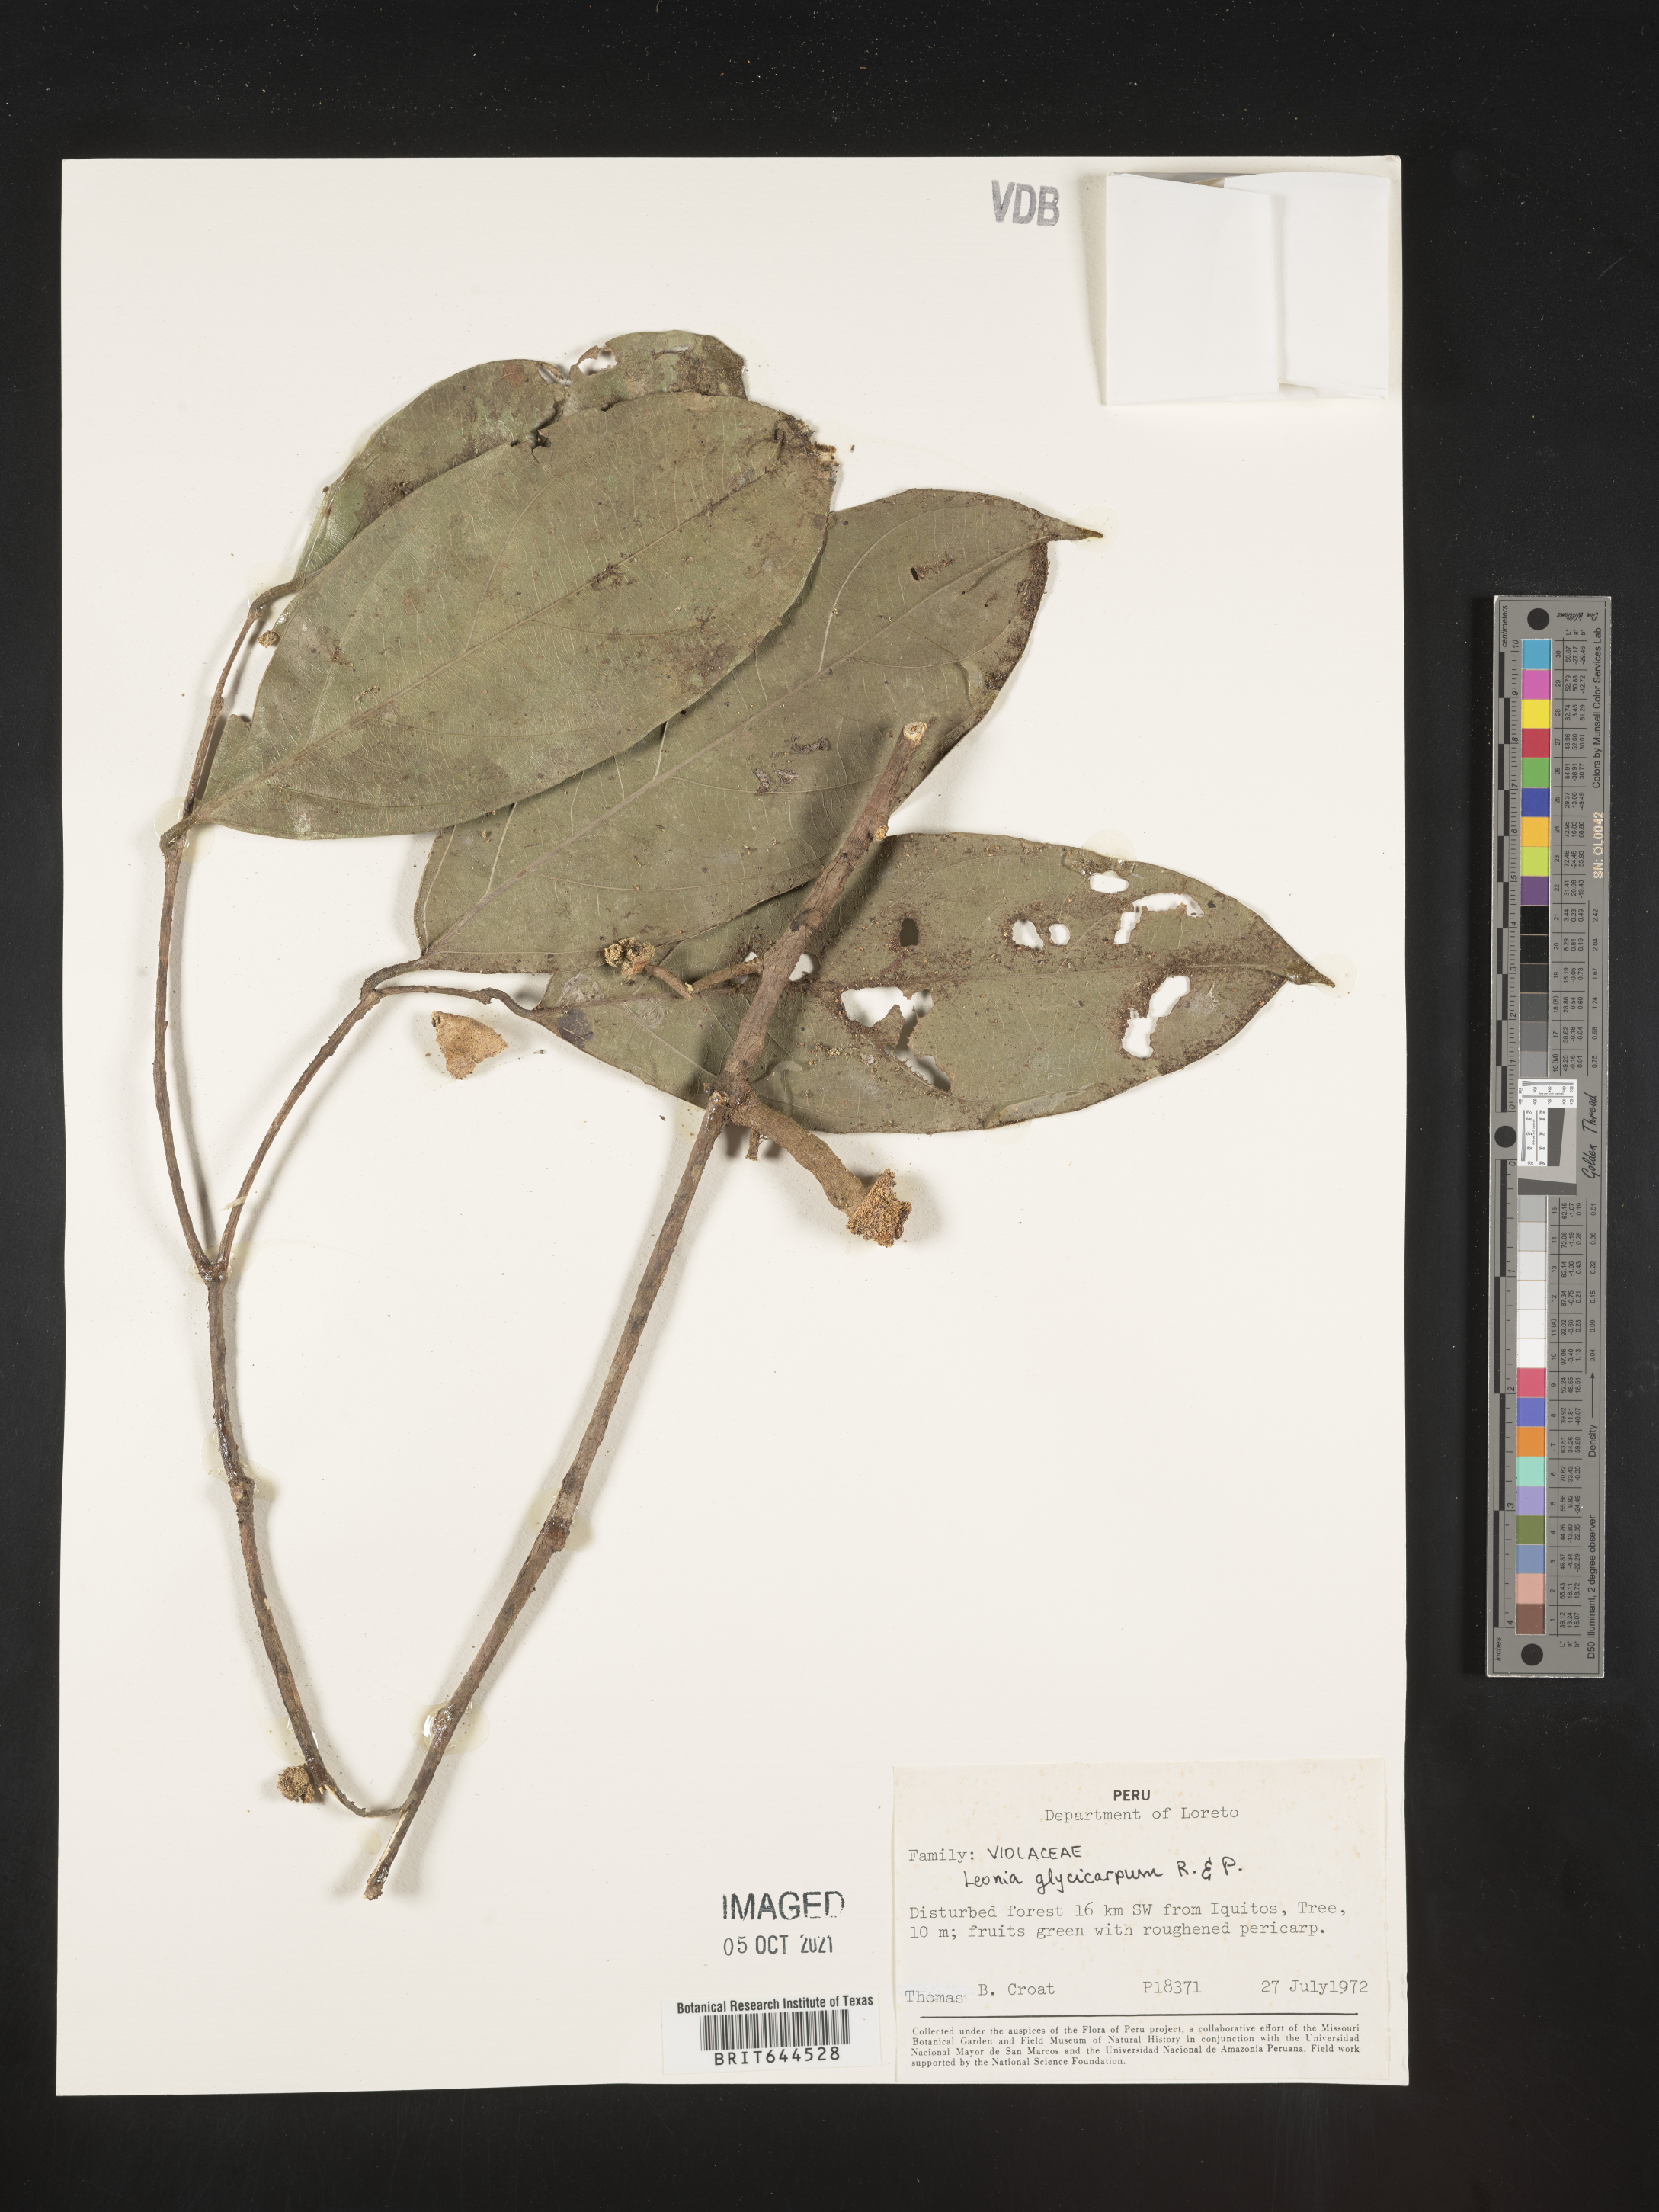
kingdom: Plantae
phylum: Tracheophyta
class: Magnoliopsida
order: Malpighiales
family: Violaceae
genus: Leonia
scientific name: Leonia
